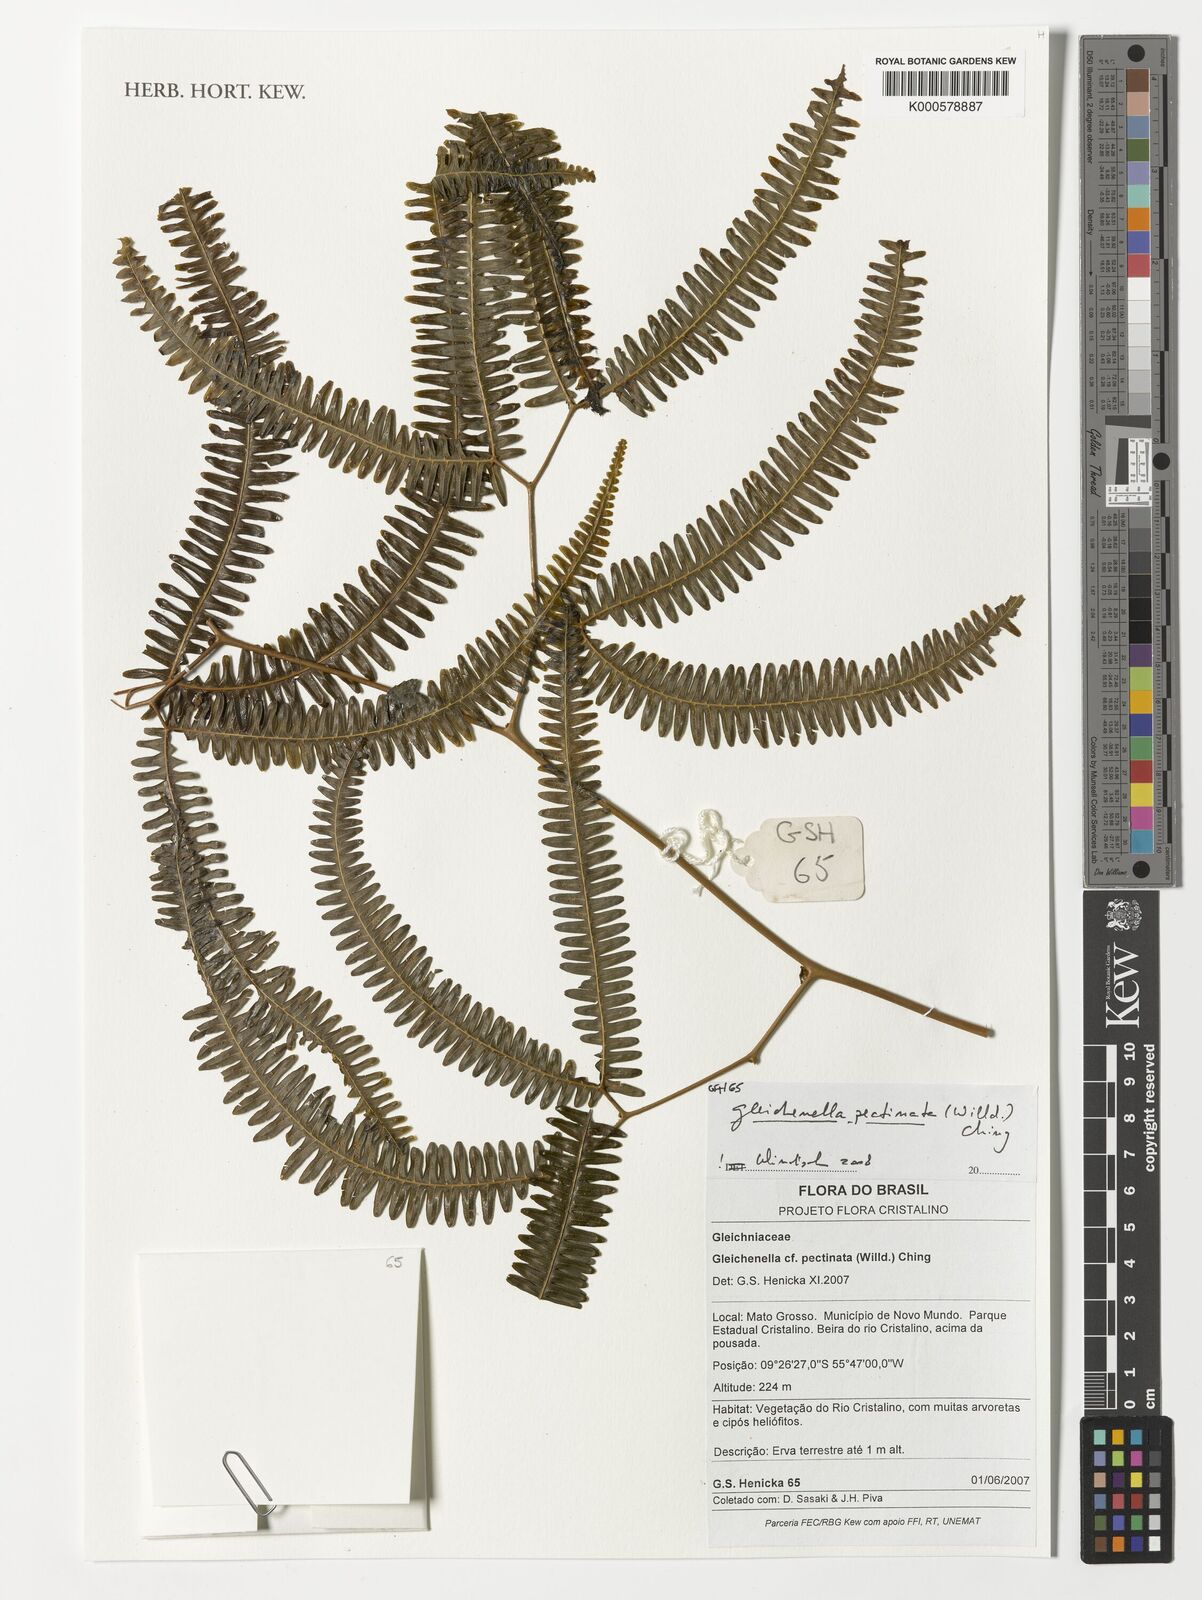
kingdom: Plantae
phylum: Tracheophyta
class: Polypodiopsida
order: Gleicheniales
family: Gleicheniaceae
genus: Gleichenella
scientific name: Gleichenella pectinata
